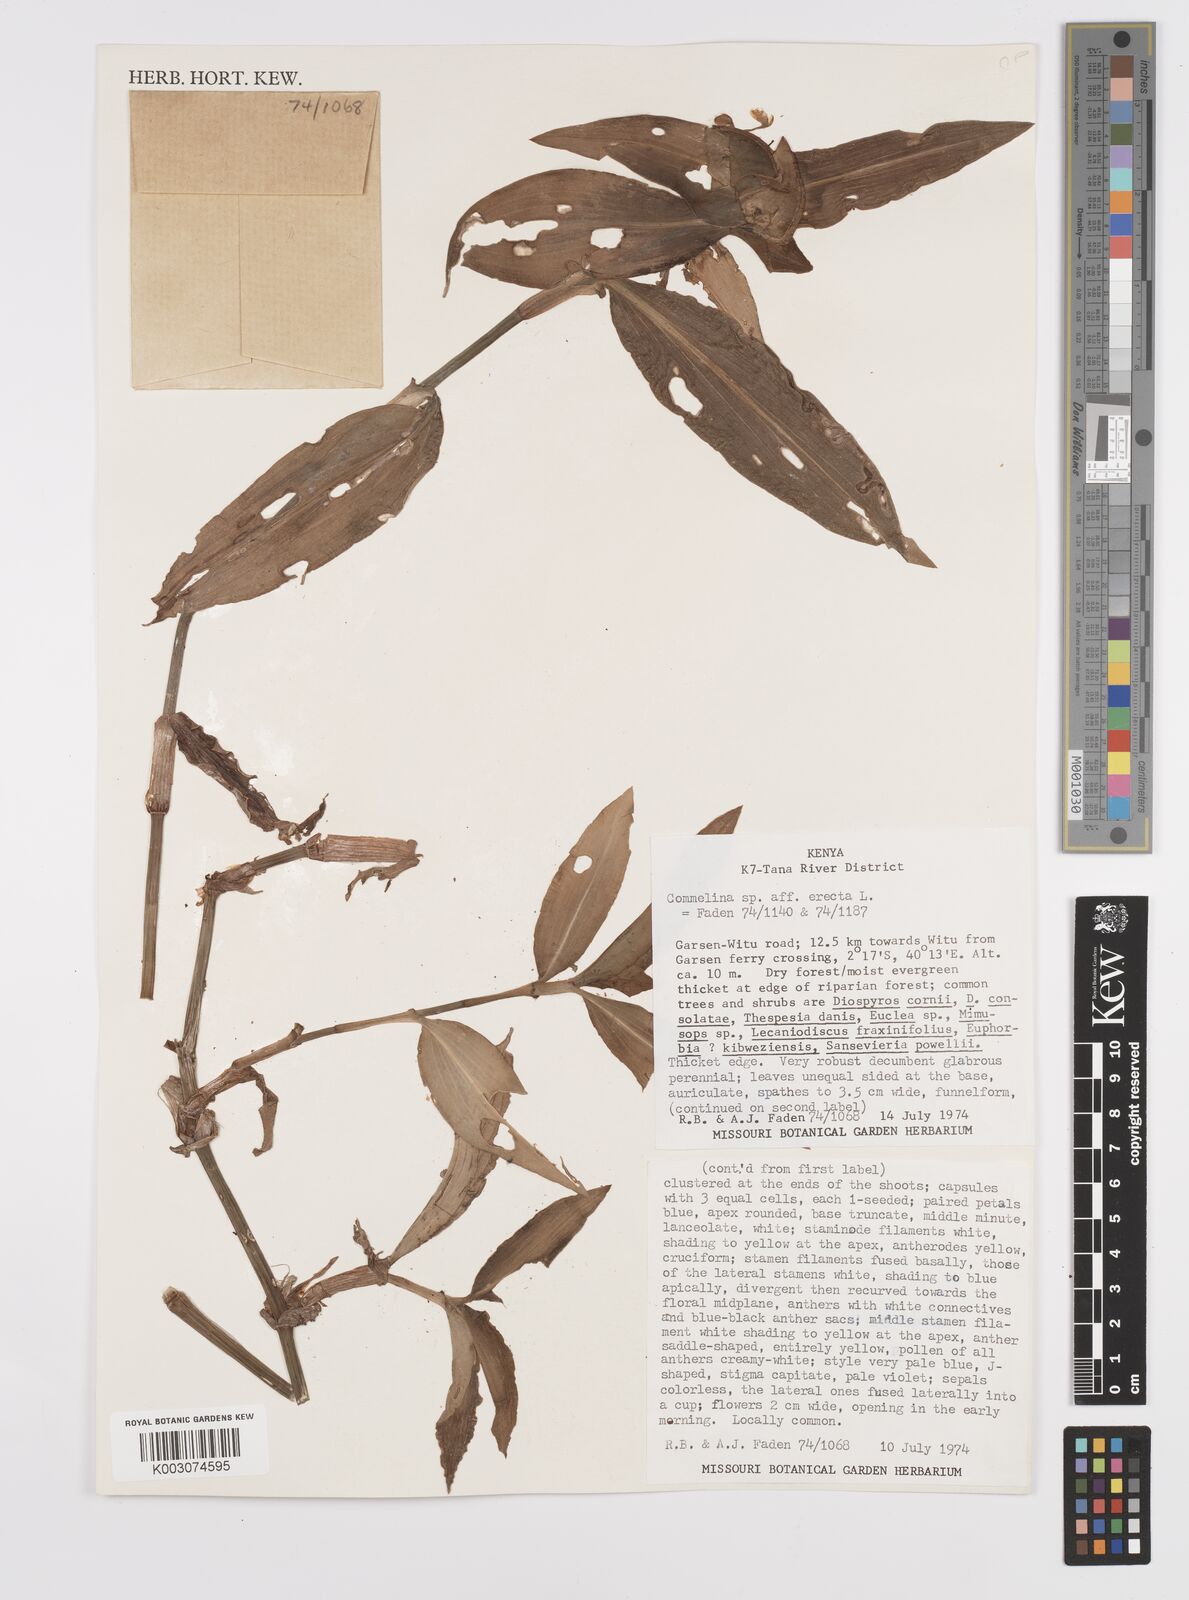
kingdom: Plantae
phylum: Tracheophyta
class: Liliopsida
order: Commelinales
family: Commelinaceae
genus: Commelina
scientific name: Commelina erecta
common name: Blousel blommetjie
